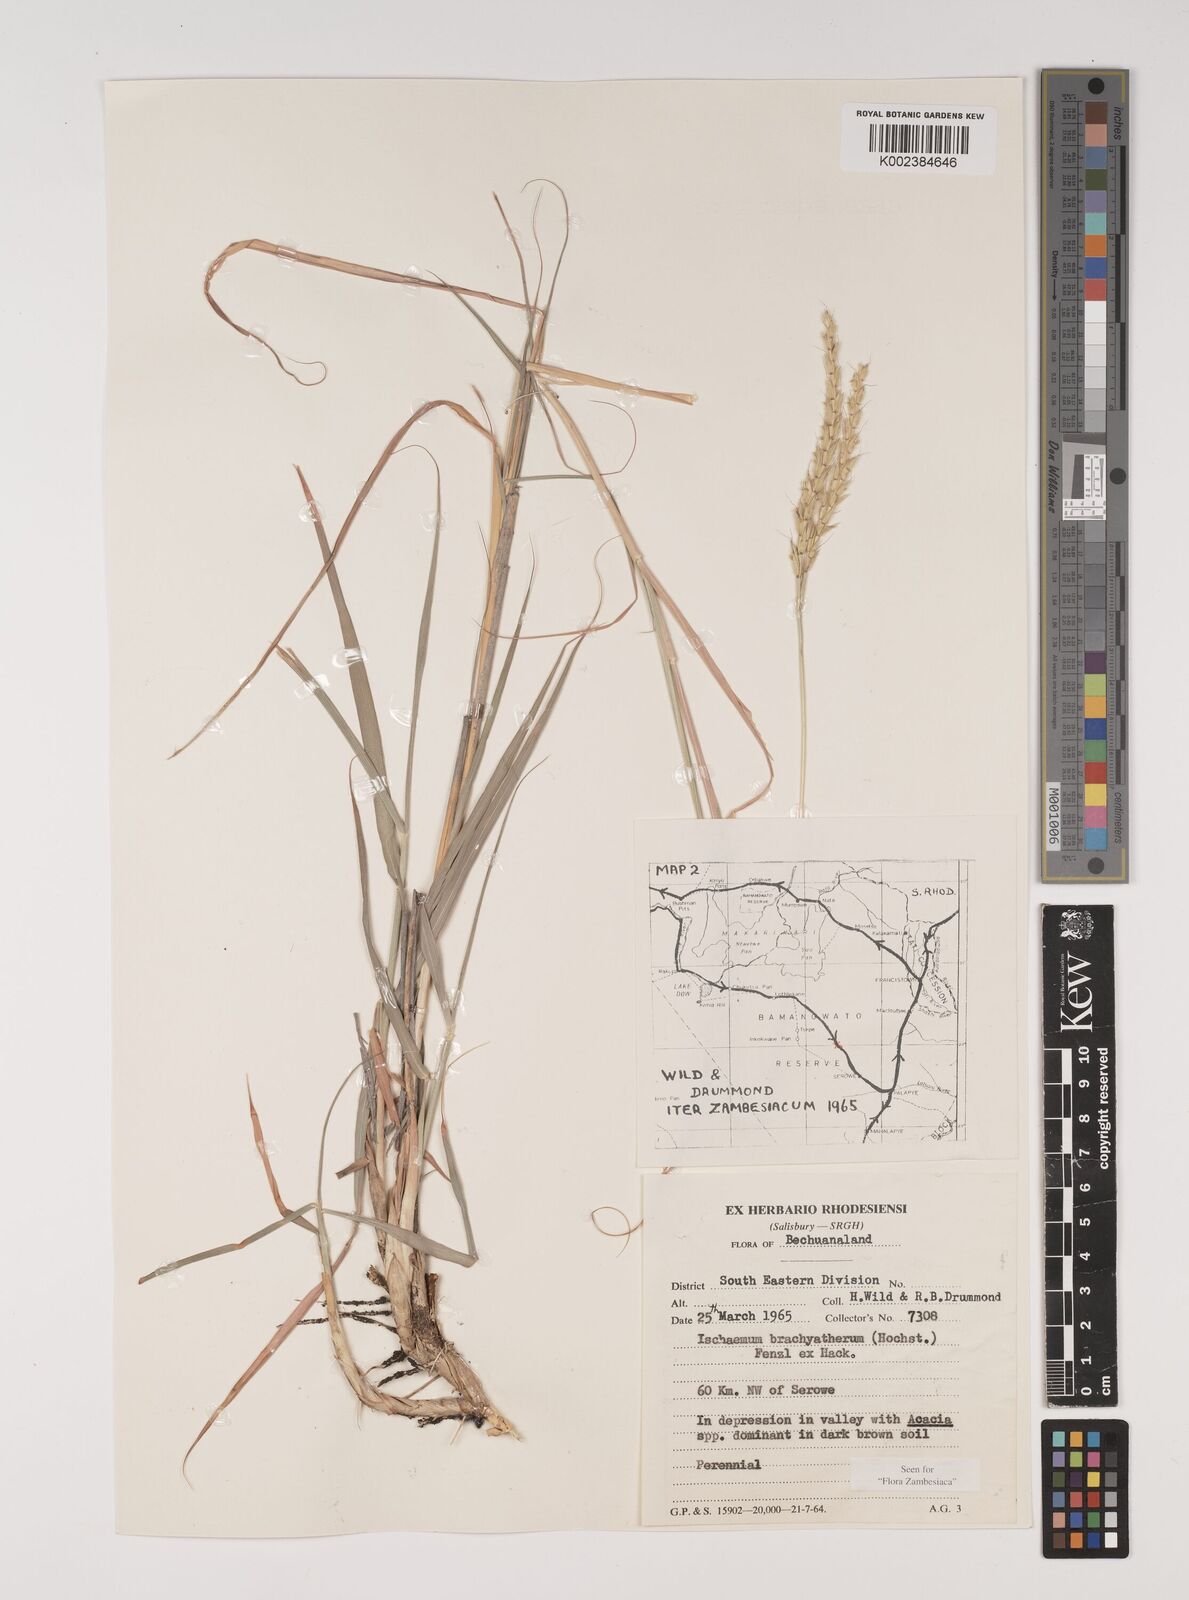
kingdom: Plantae
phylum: Tracheophyta
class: Liliopsida
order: Poales
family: Poaceae
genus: Ischaemum
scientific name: Ischaemum afrum
